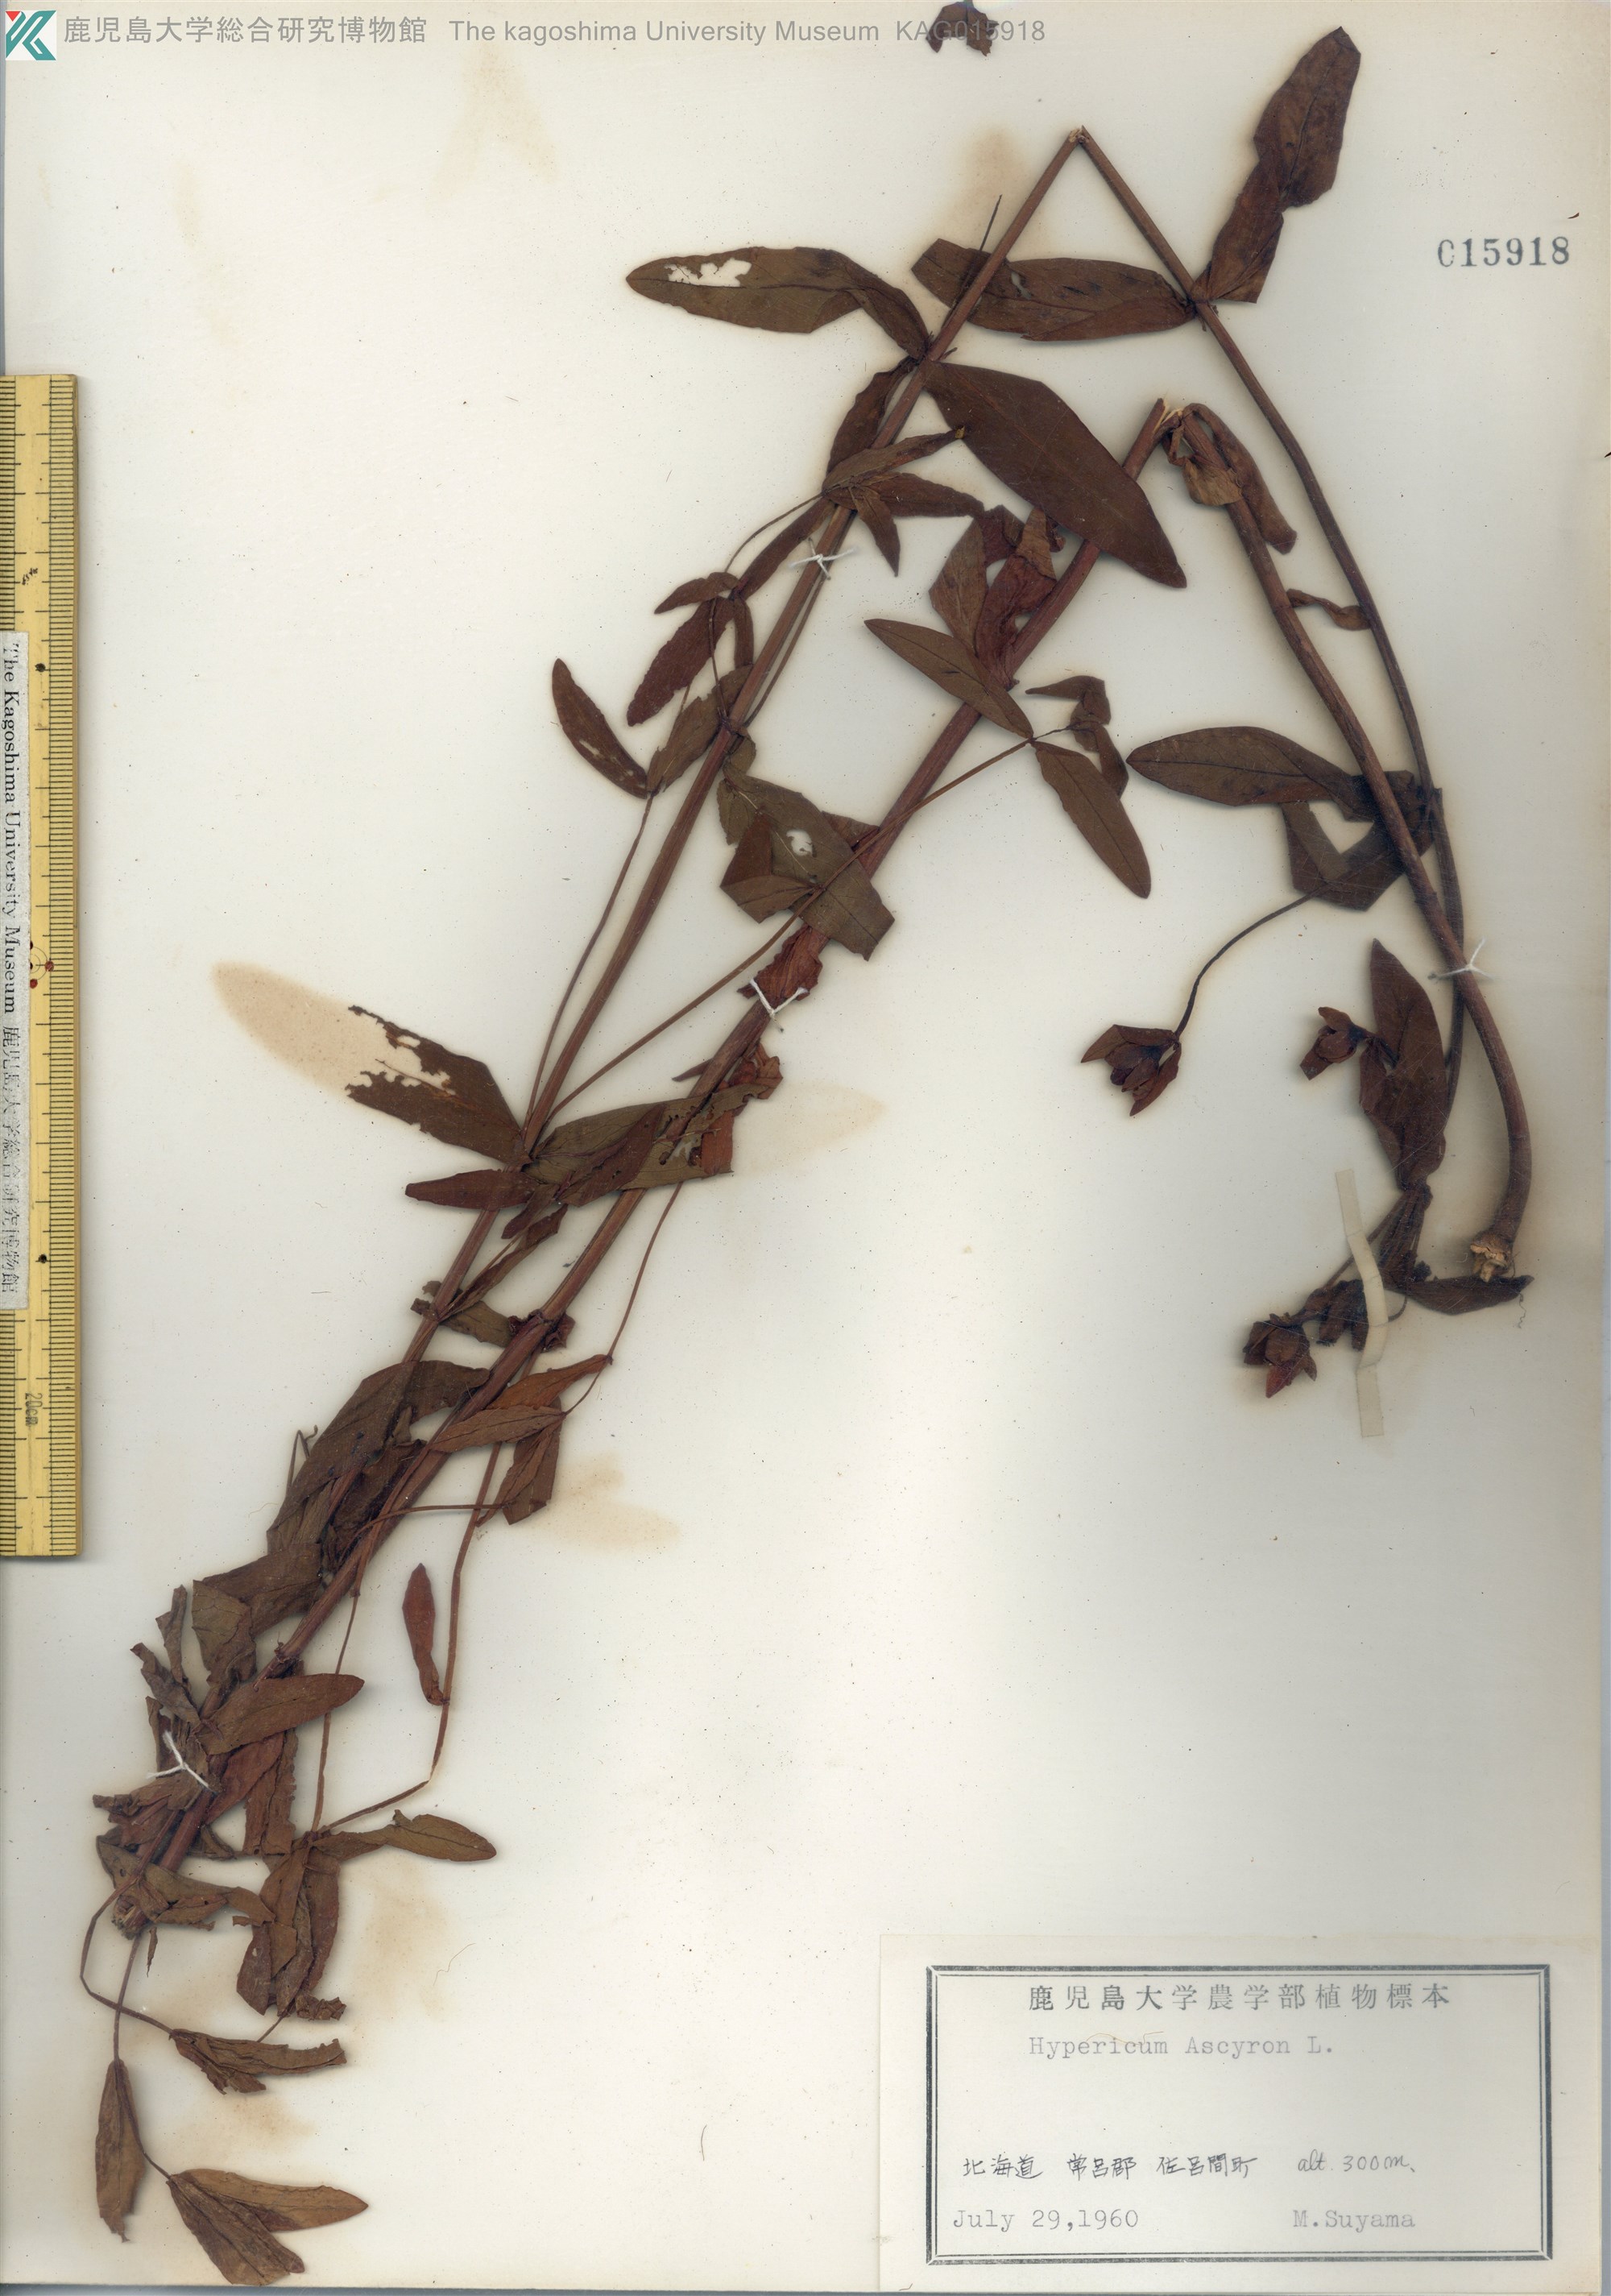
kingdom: Plantae
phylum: Tracheophyta
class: Magnoliopsida
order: Malpighiales
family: Hypericaceae
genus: Hypericum
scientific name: Hypericum ascyron
